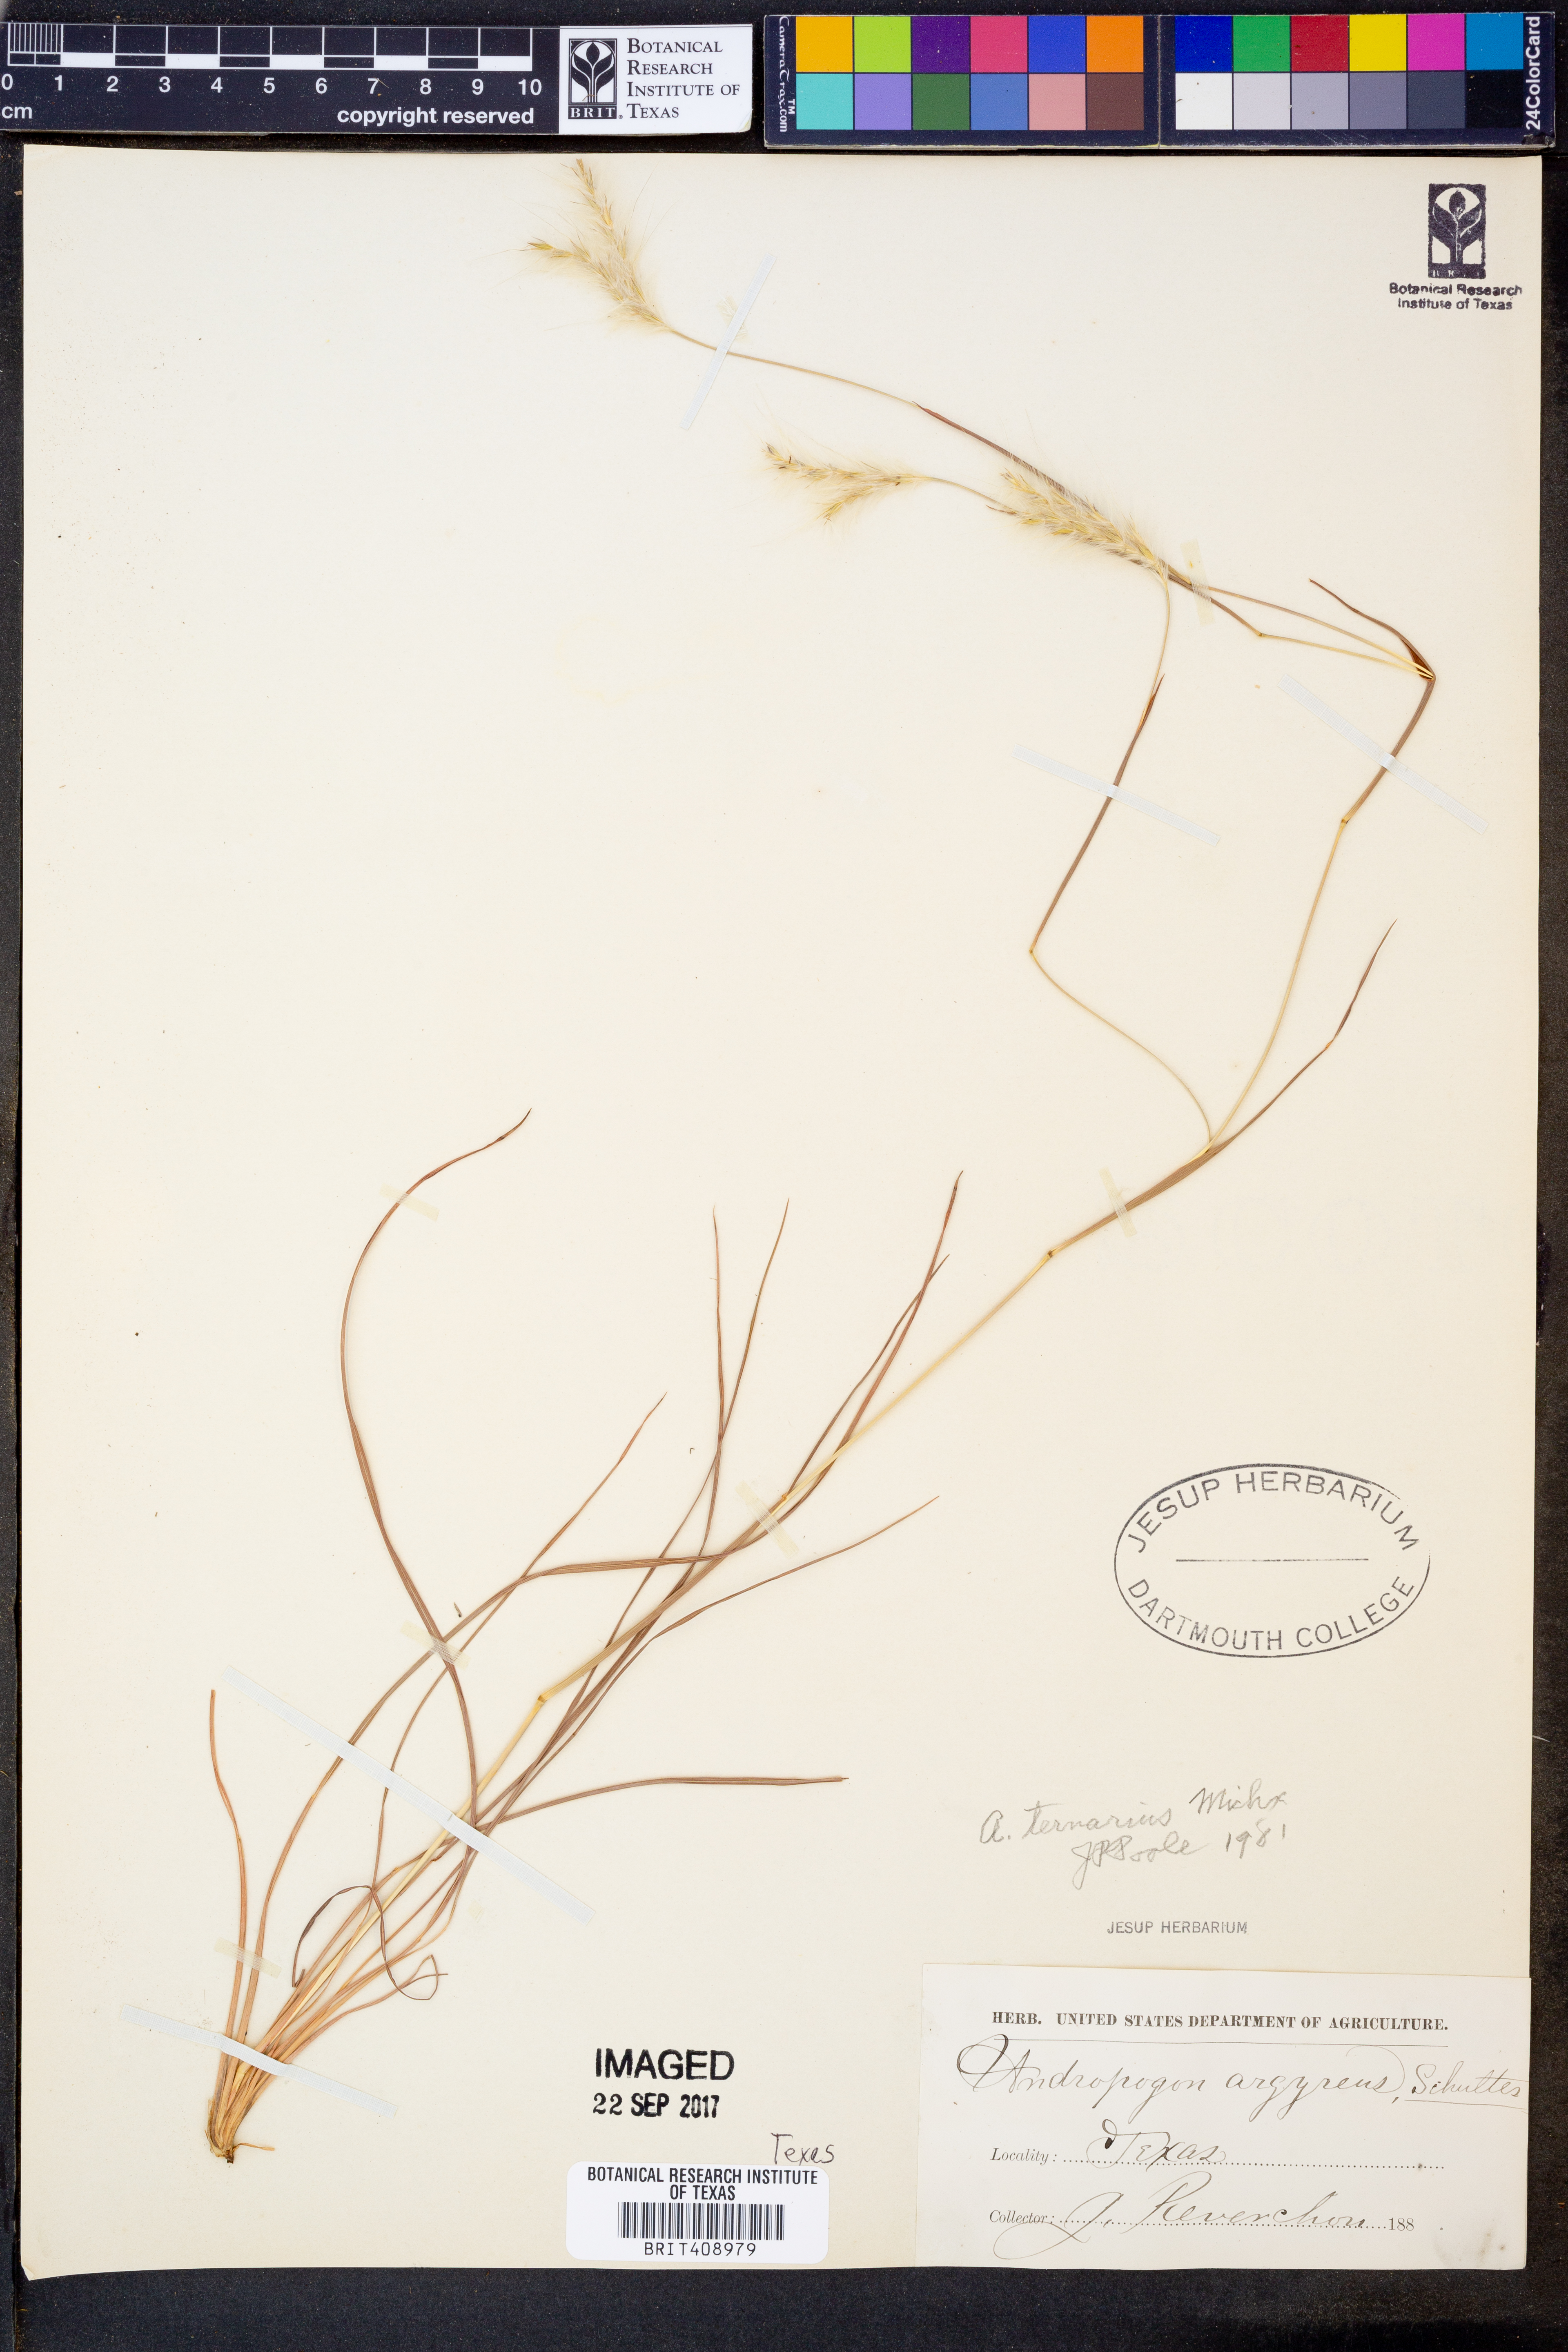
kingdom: Plantae
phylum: Tracheophyta
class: Liliopsida
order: Poales
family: Poaceae
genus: Andropogon
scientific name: Andropogon ternarius
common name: Split bluestem
